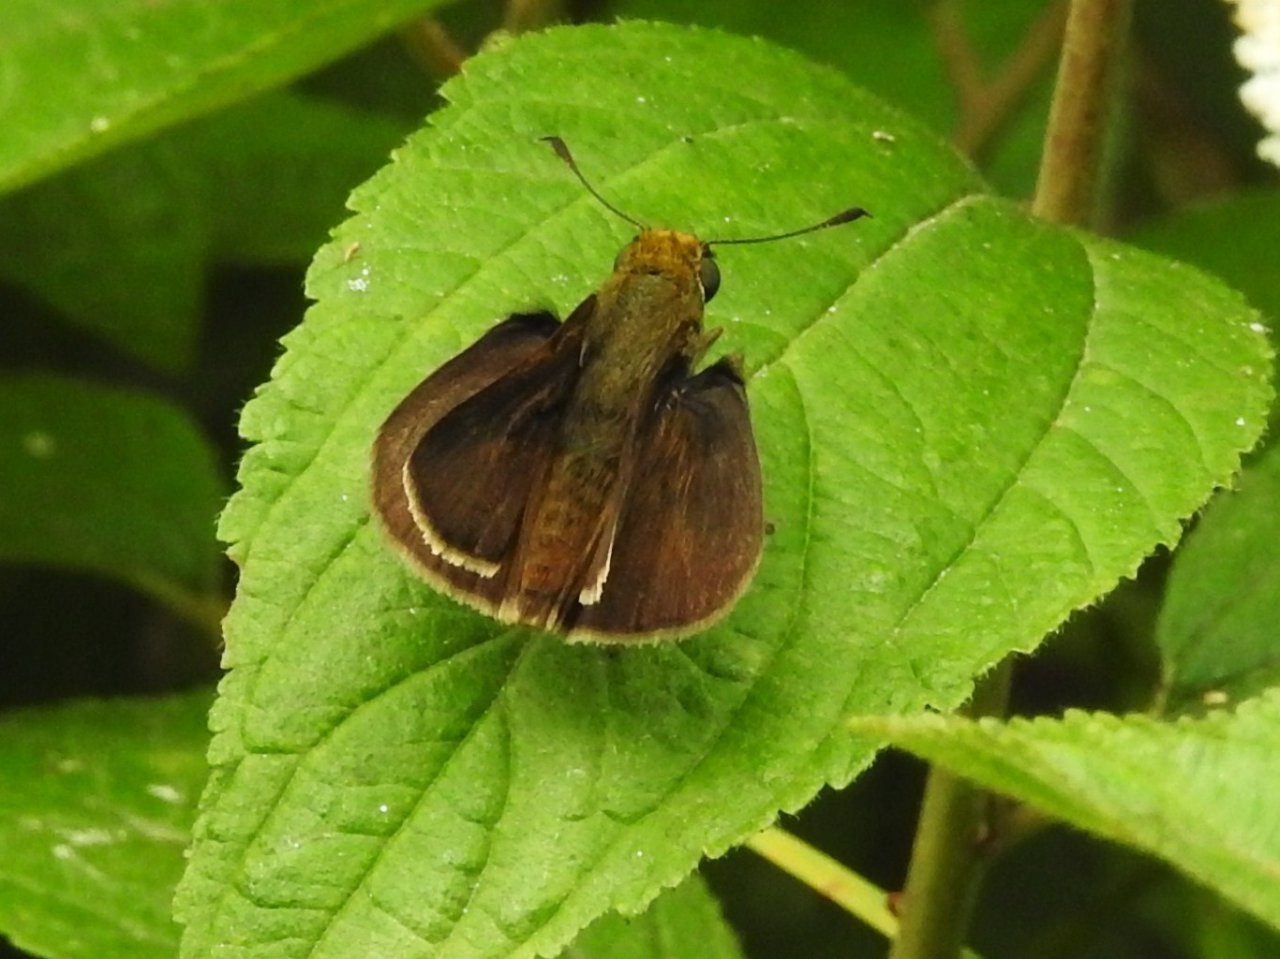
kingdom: Animalia
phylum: Arthropoda
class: Insecta
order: Lepidoptera
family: Hesperiidae
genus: Euphyes
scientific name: Euphyes vestris
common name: Dun Skipper
